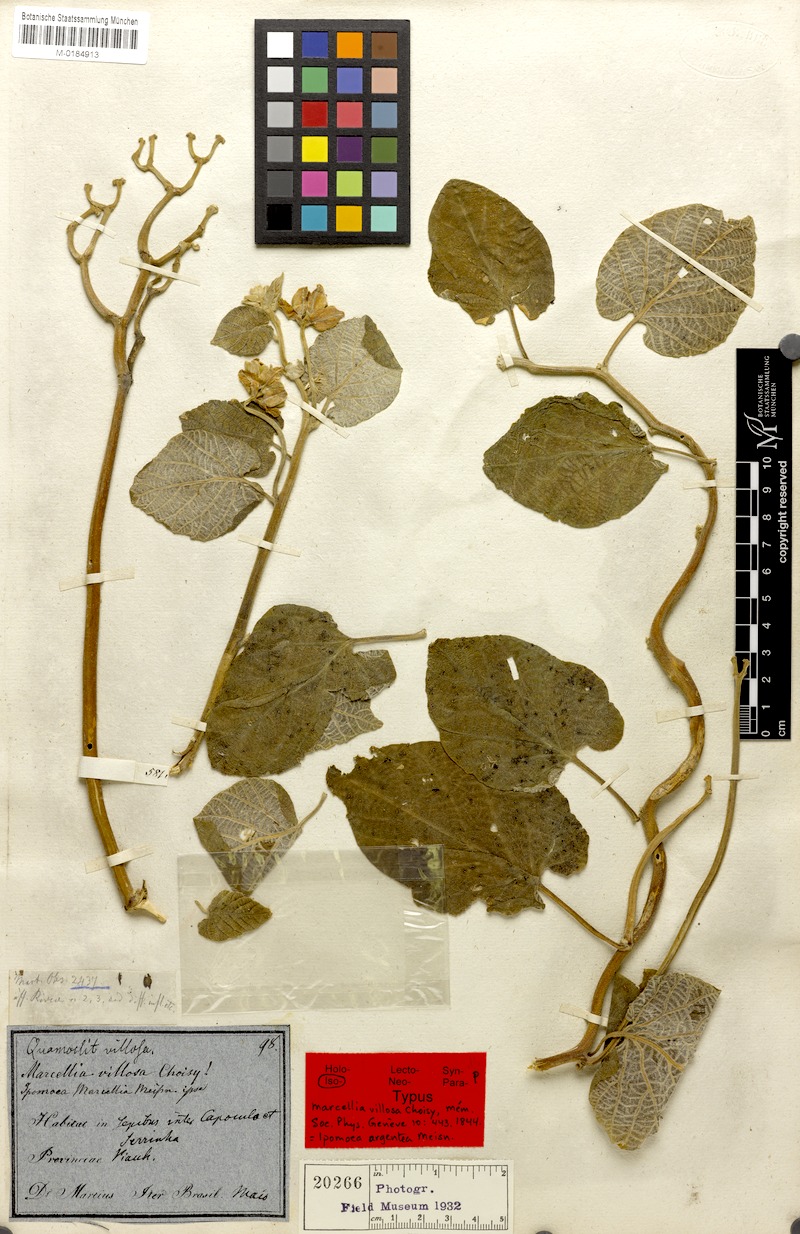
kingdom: Plantae
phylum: Tracheophyta
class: Magnoliopsida
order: Solanales
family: Convolvulaceae
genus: Ipomoea
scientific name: Ipomoea argentea
